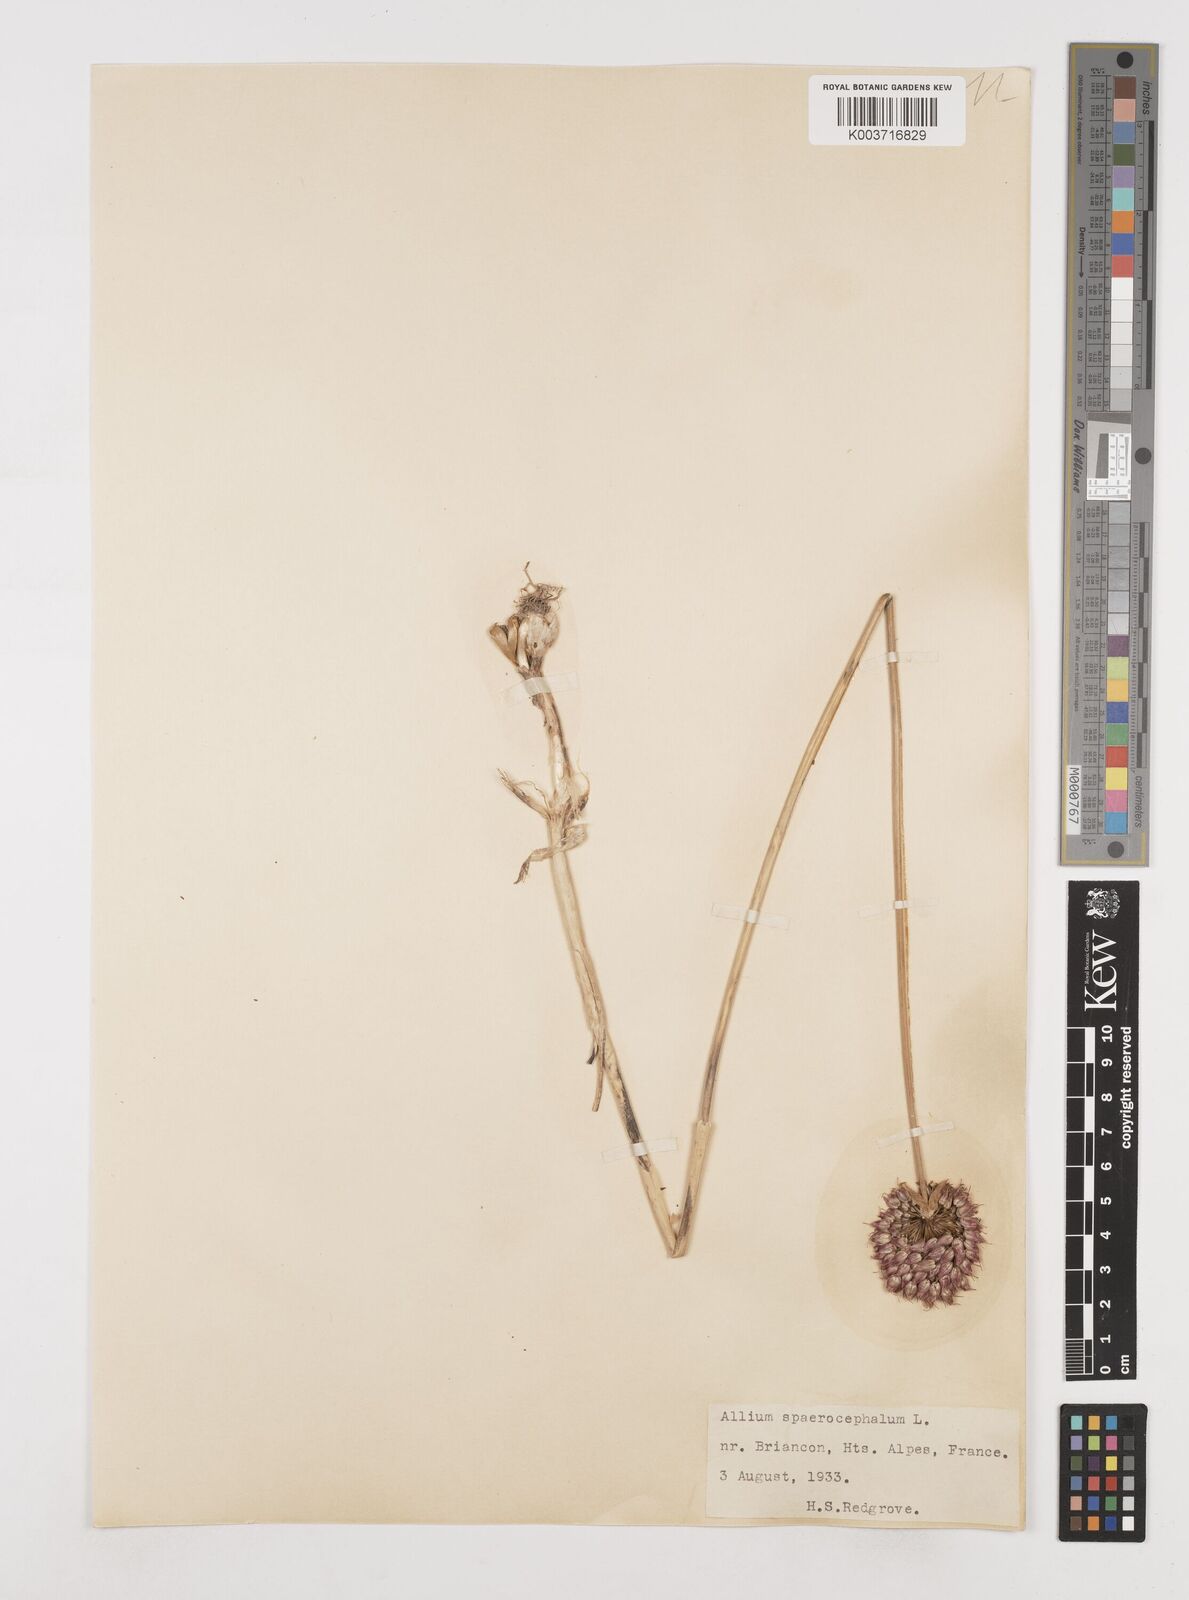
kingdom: Plantae
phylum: Tracheophyta
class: Liliopsida
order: Asparagales
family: Amaryllidaceae
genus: Allium
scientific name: Allium sphaerocephalon
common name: Round-headed leek
